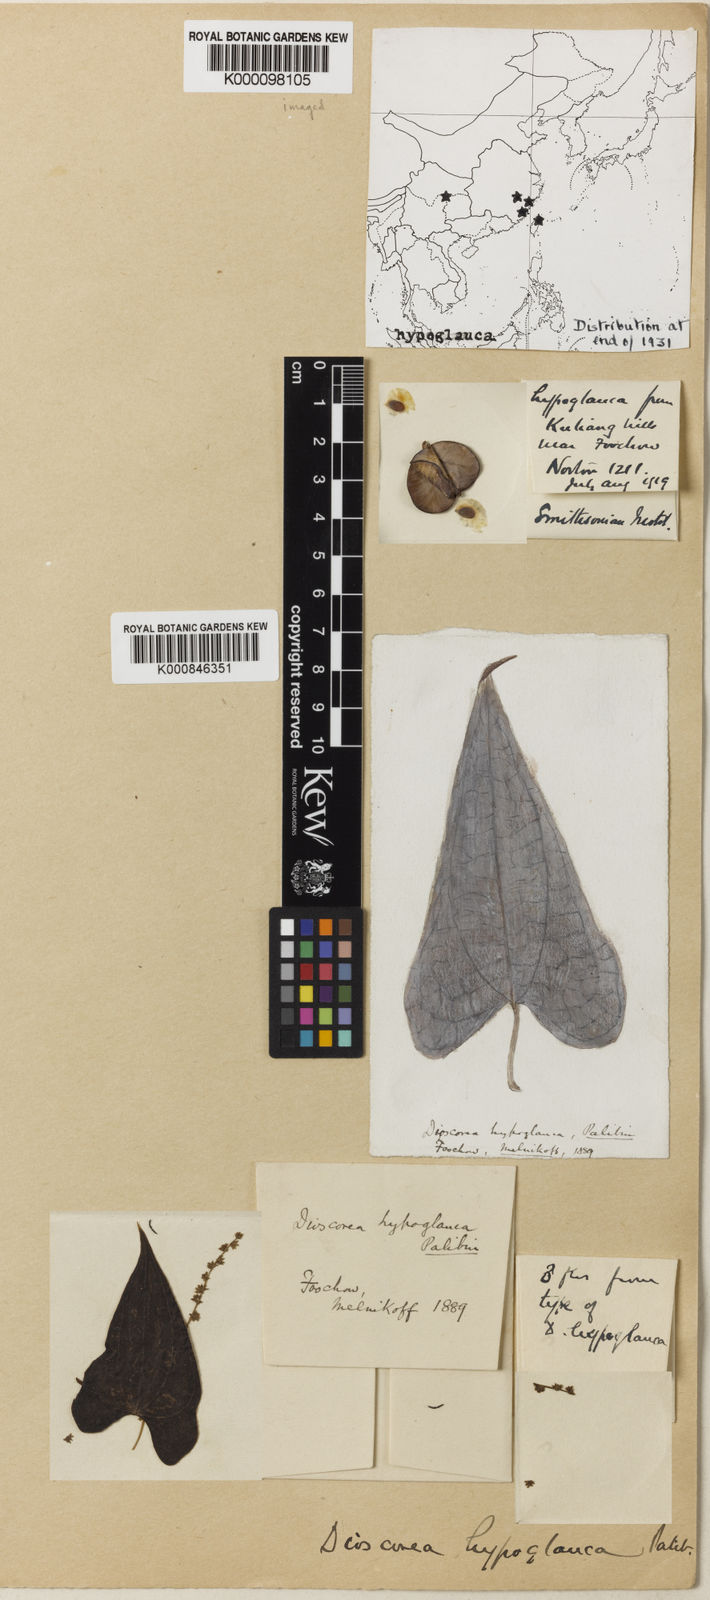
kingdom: Plantae
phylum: Tracheophyta
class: Liliopsida
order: Dioscoreales
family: Dioscoreaceae
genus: Dioscorea
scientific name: Dioscorea collettii
